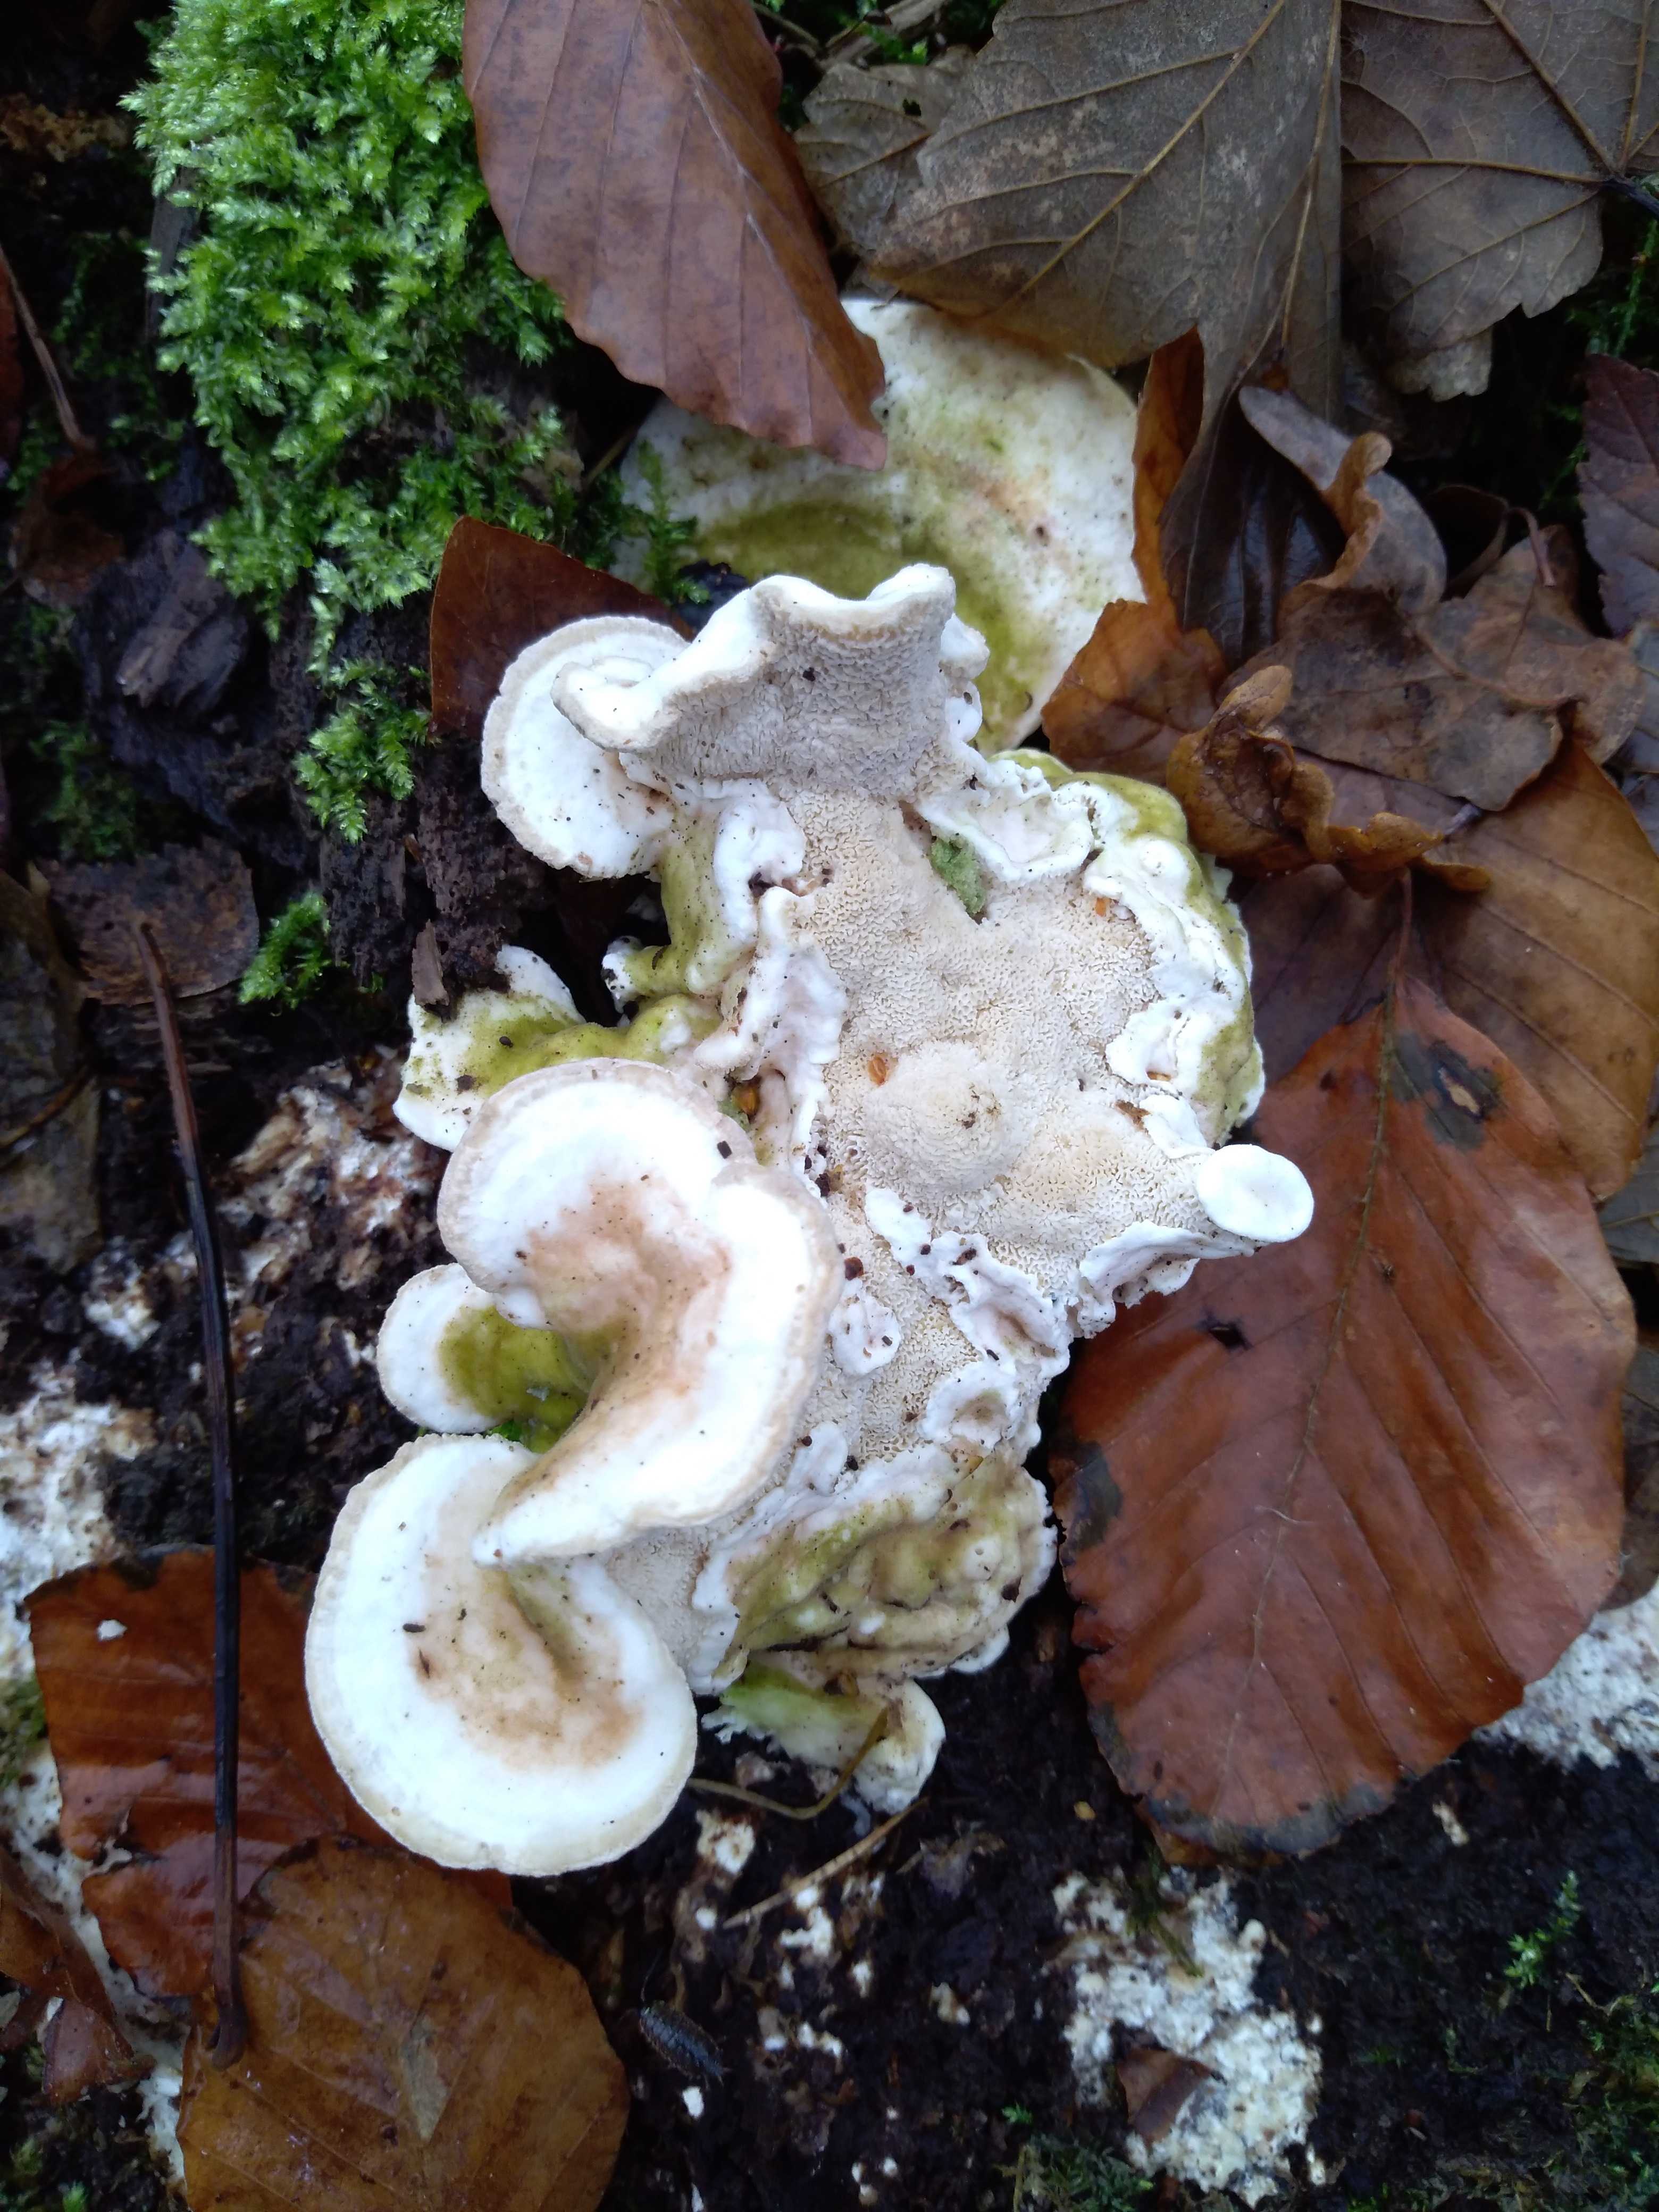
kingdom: Fungi
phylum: Basidiomycota
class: Agaricomycetes
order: Polyporales
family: Polyporaceae
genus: Trametes
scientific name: Trametes hirsuta
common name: håret læderporesvamp
